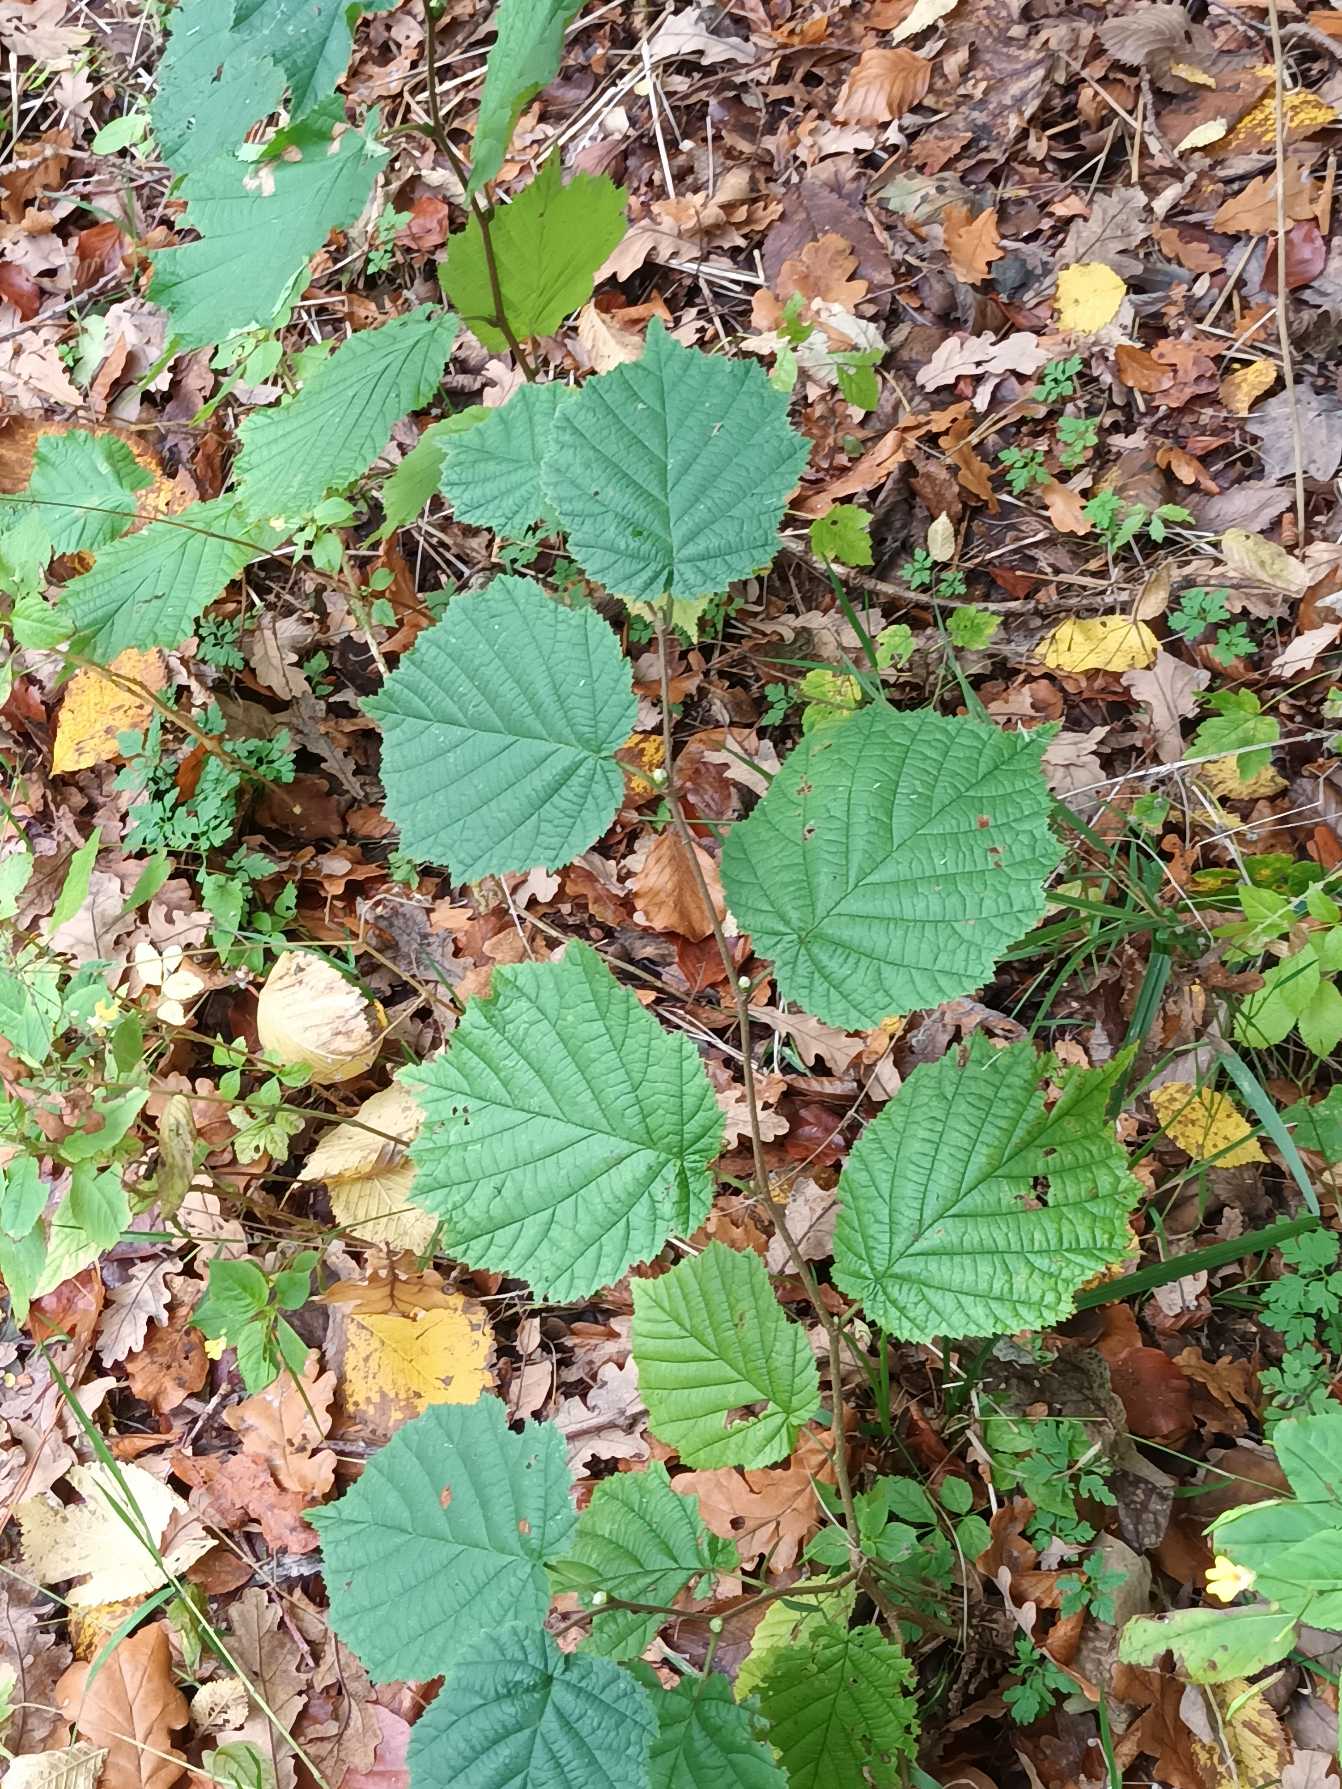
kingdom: Plantae
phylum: Tracheophyta
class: Magnoliopsida
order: Fagales
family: Betulaceae
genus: Corylus
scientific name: Corylus avellana
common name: Hassel
